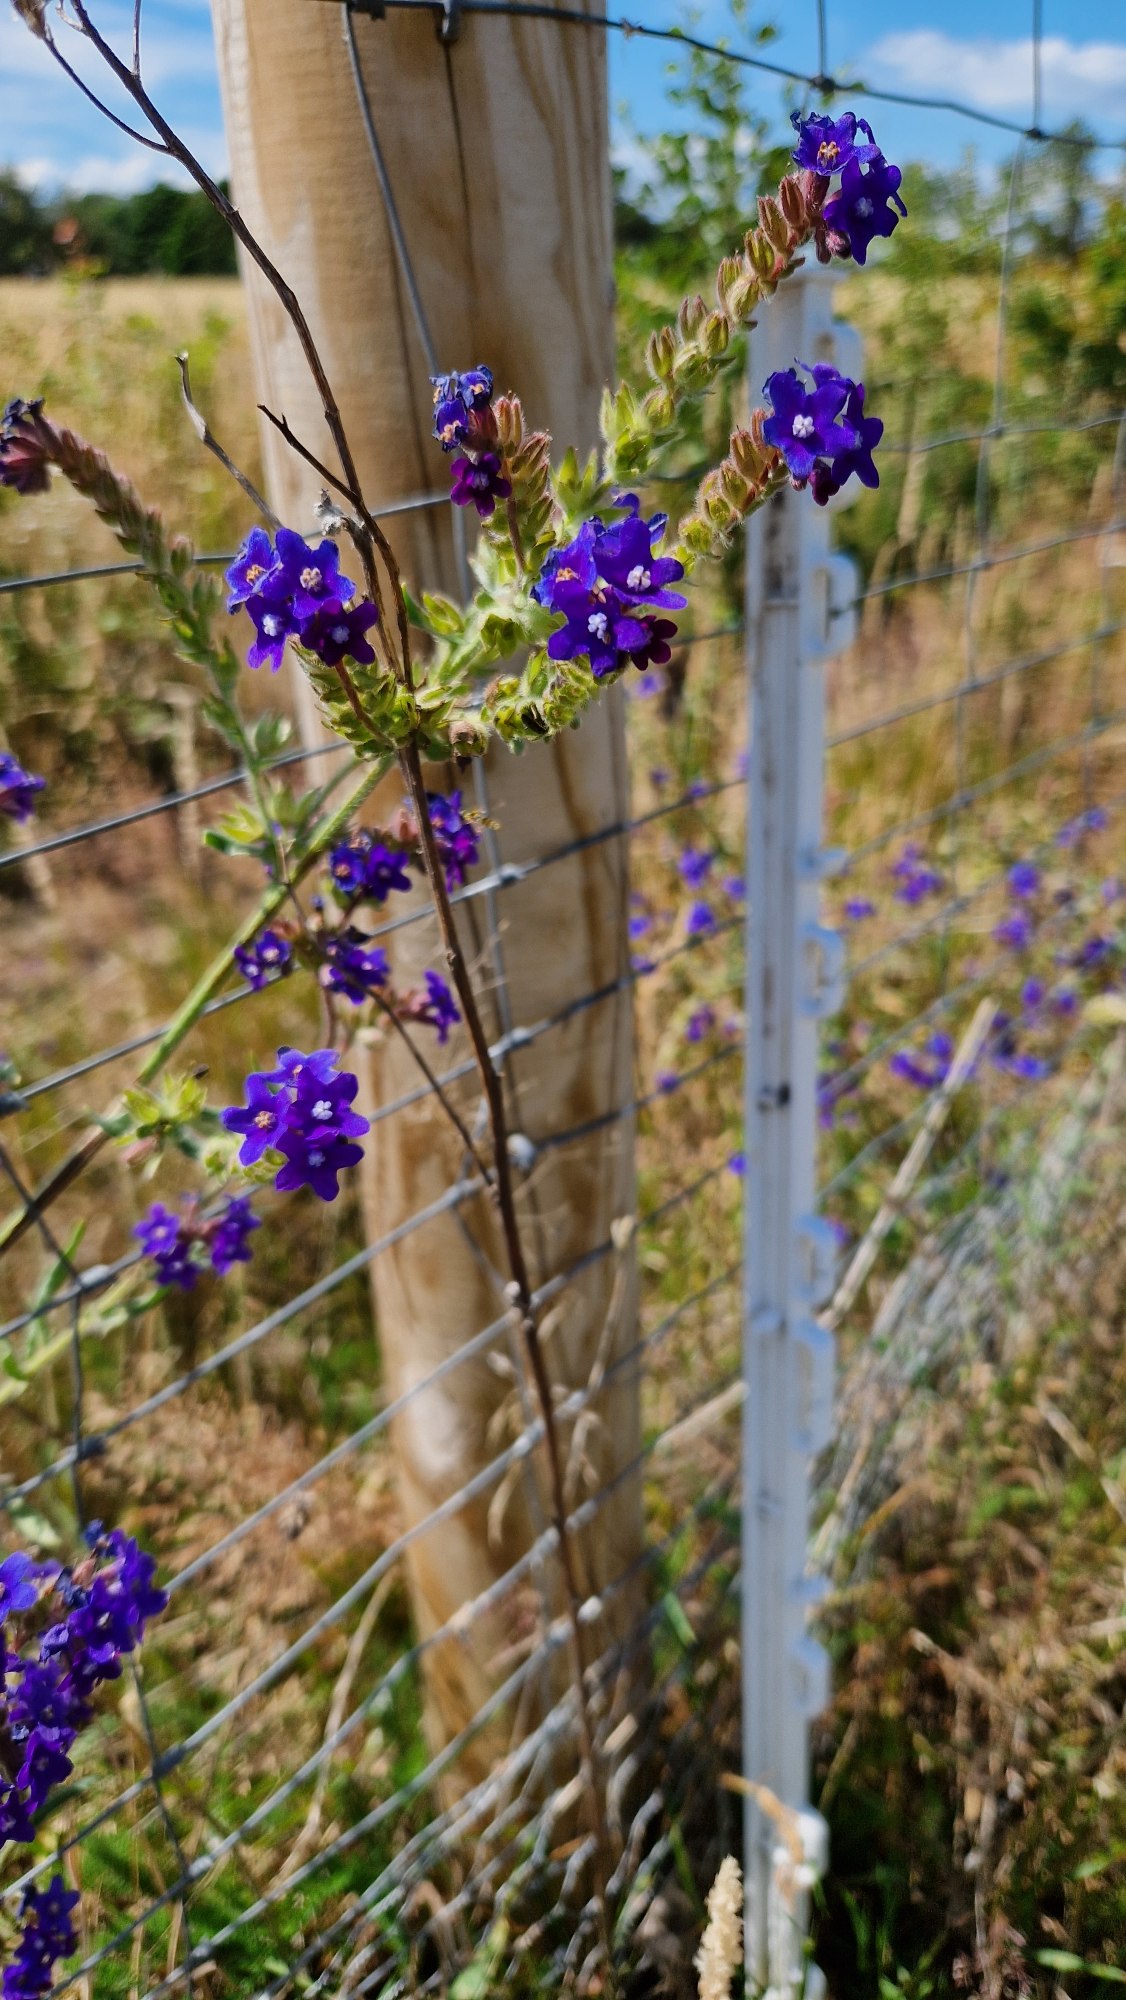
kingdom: Plantae
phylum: Tracheophyta
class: Magnoliopsida
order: Boraginales
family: Boraginaceae
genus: Anchusa
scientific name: Anchusa officinalis
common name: Læge-oksetunge
